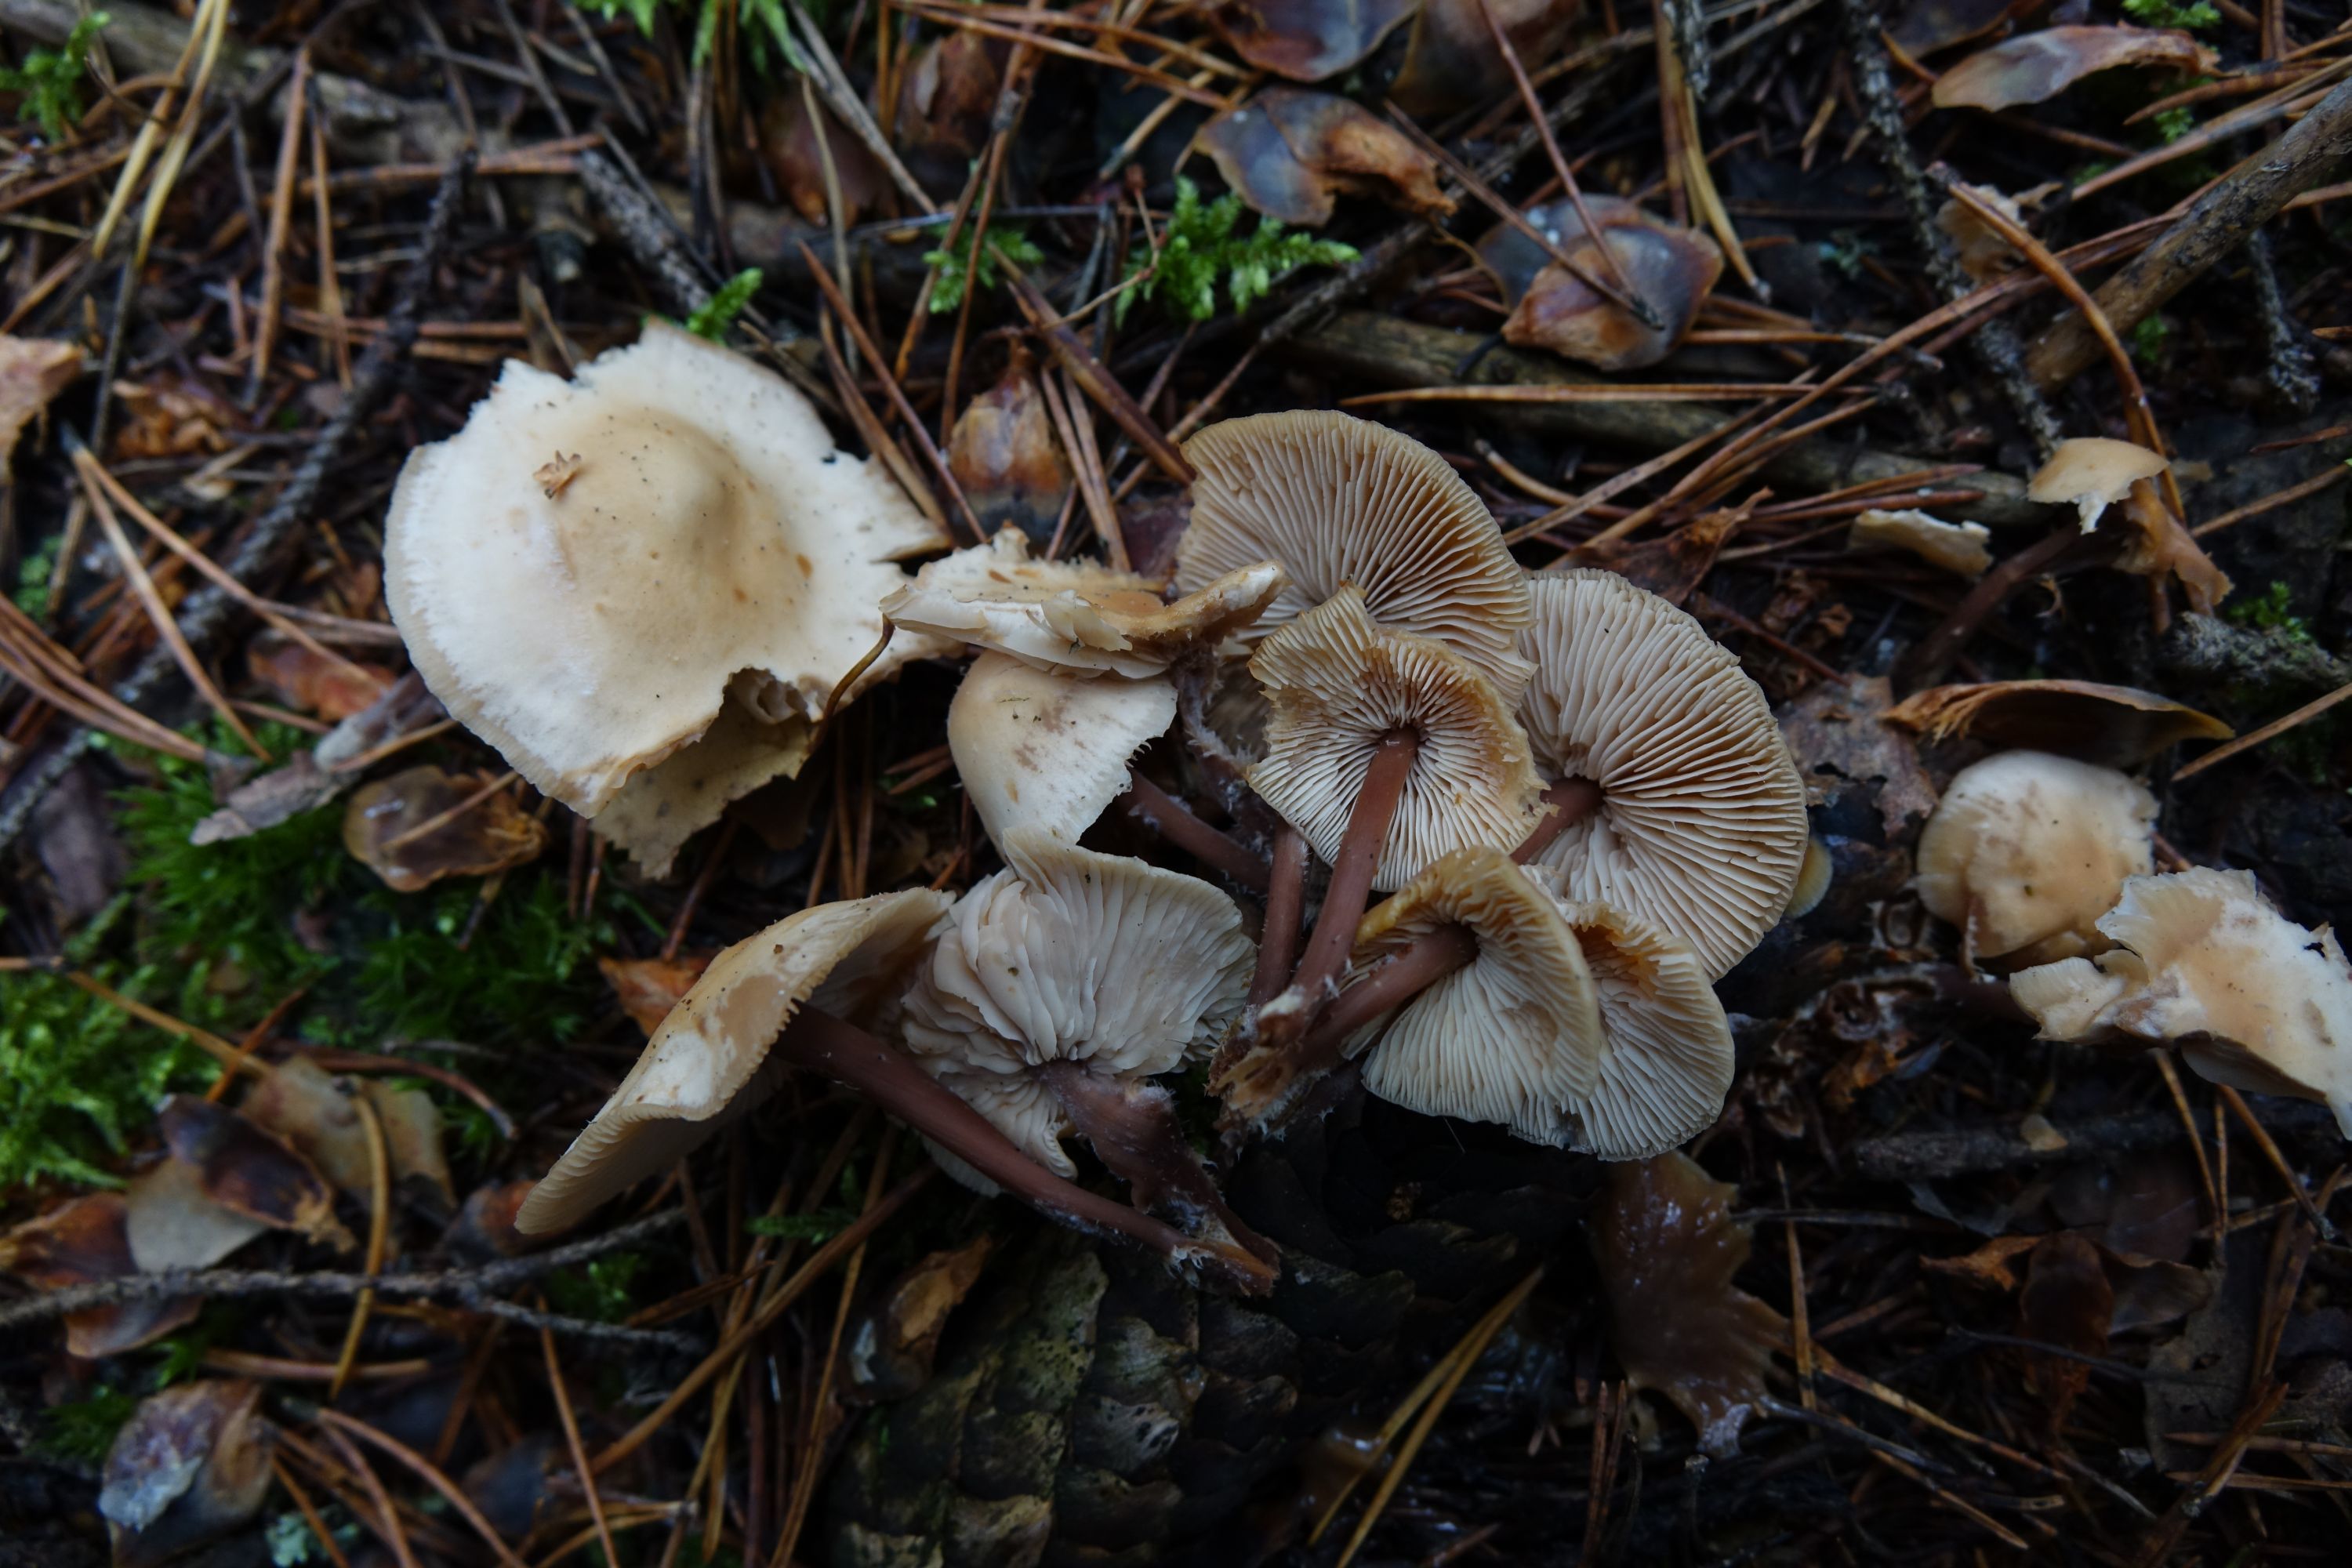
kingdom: Fungi
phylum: Basidiomycota
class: Agaricomycetes
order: Agaricales
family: Omphalotaceae
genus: Connopus
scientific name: Connopus acervatus
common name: Cluster cap
